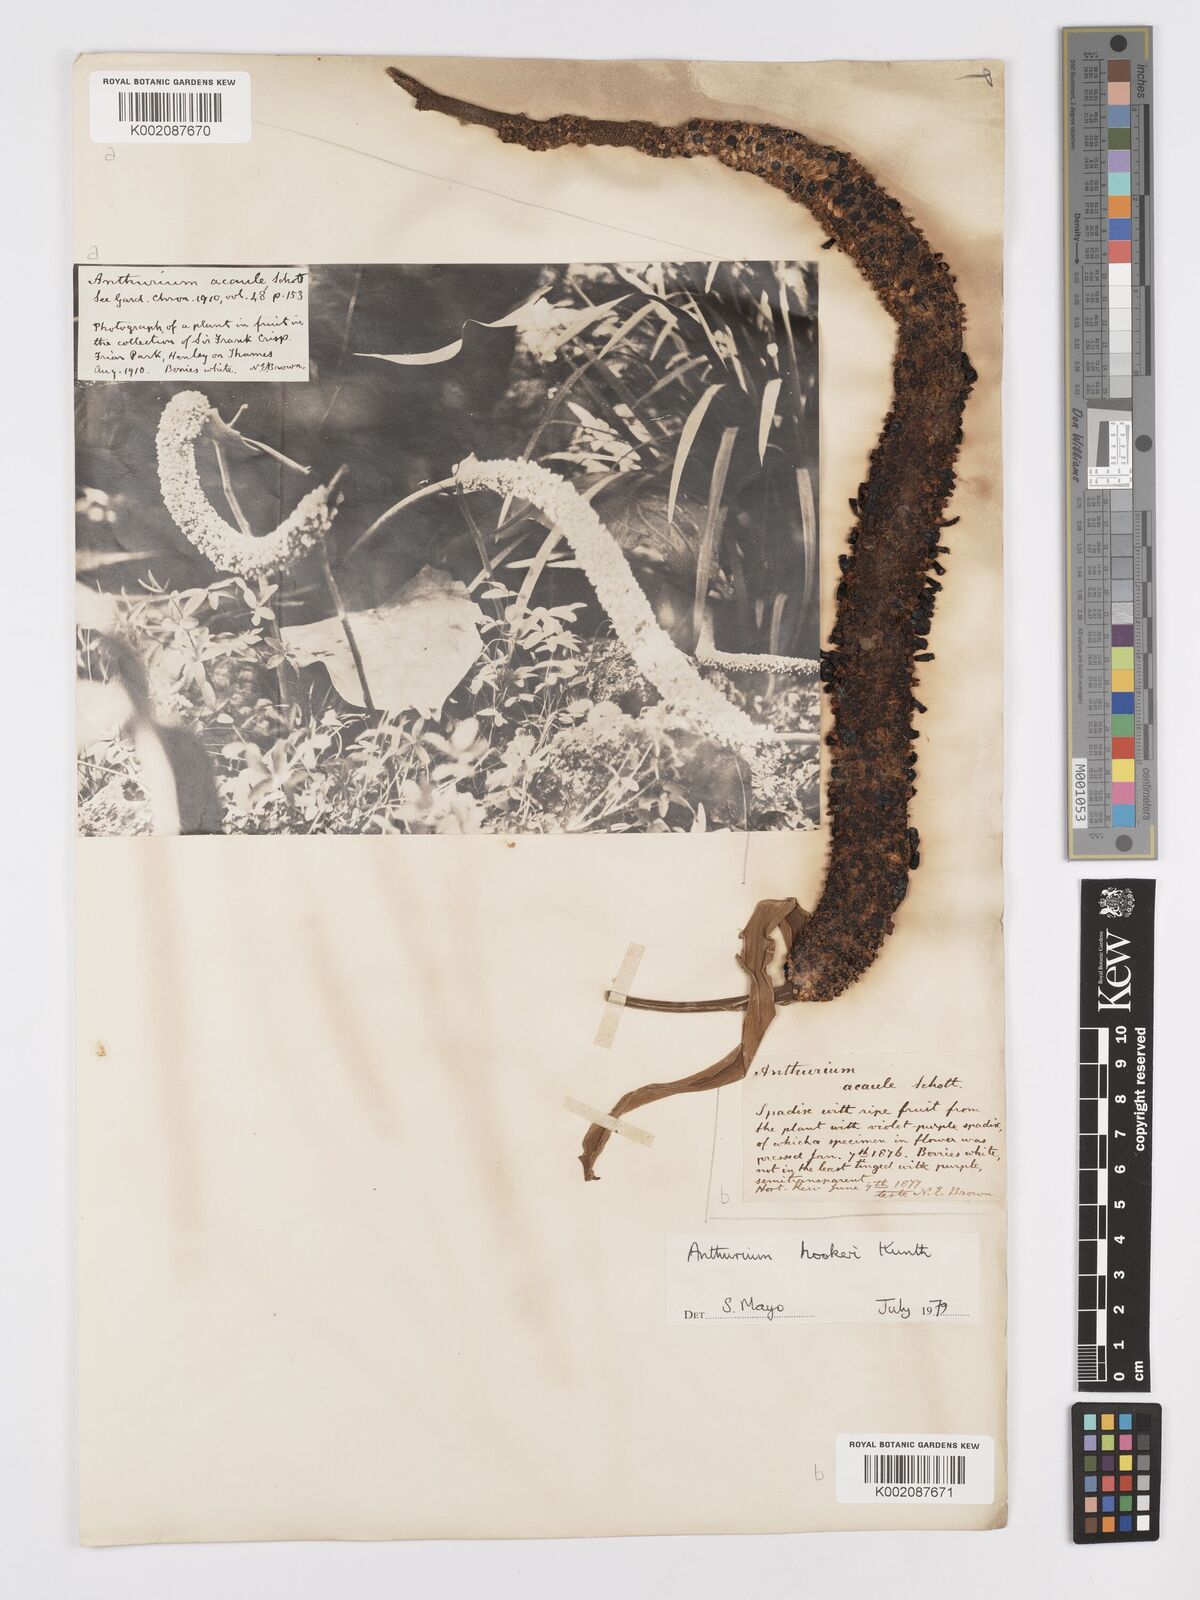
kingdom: Plantae
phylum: Tracheophyta
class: Liliopsida
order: Alismatales
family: Araceae
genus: Anthurium
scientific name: Anthurium hookeri
